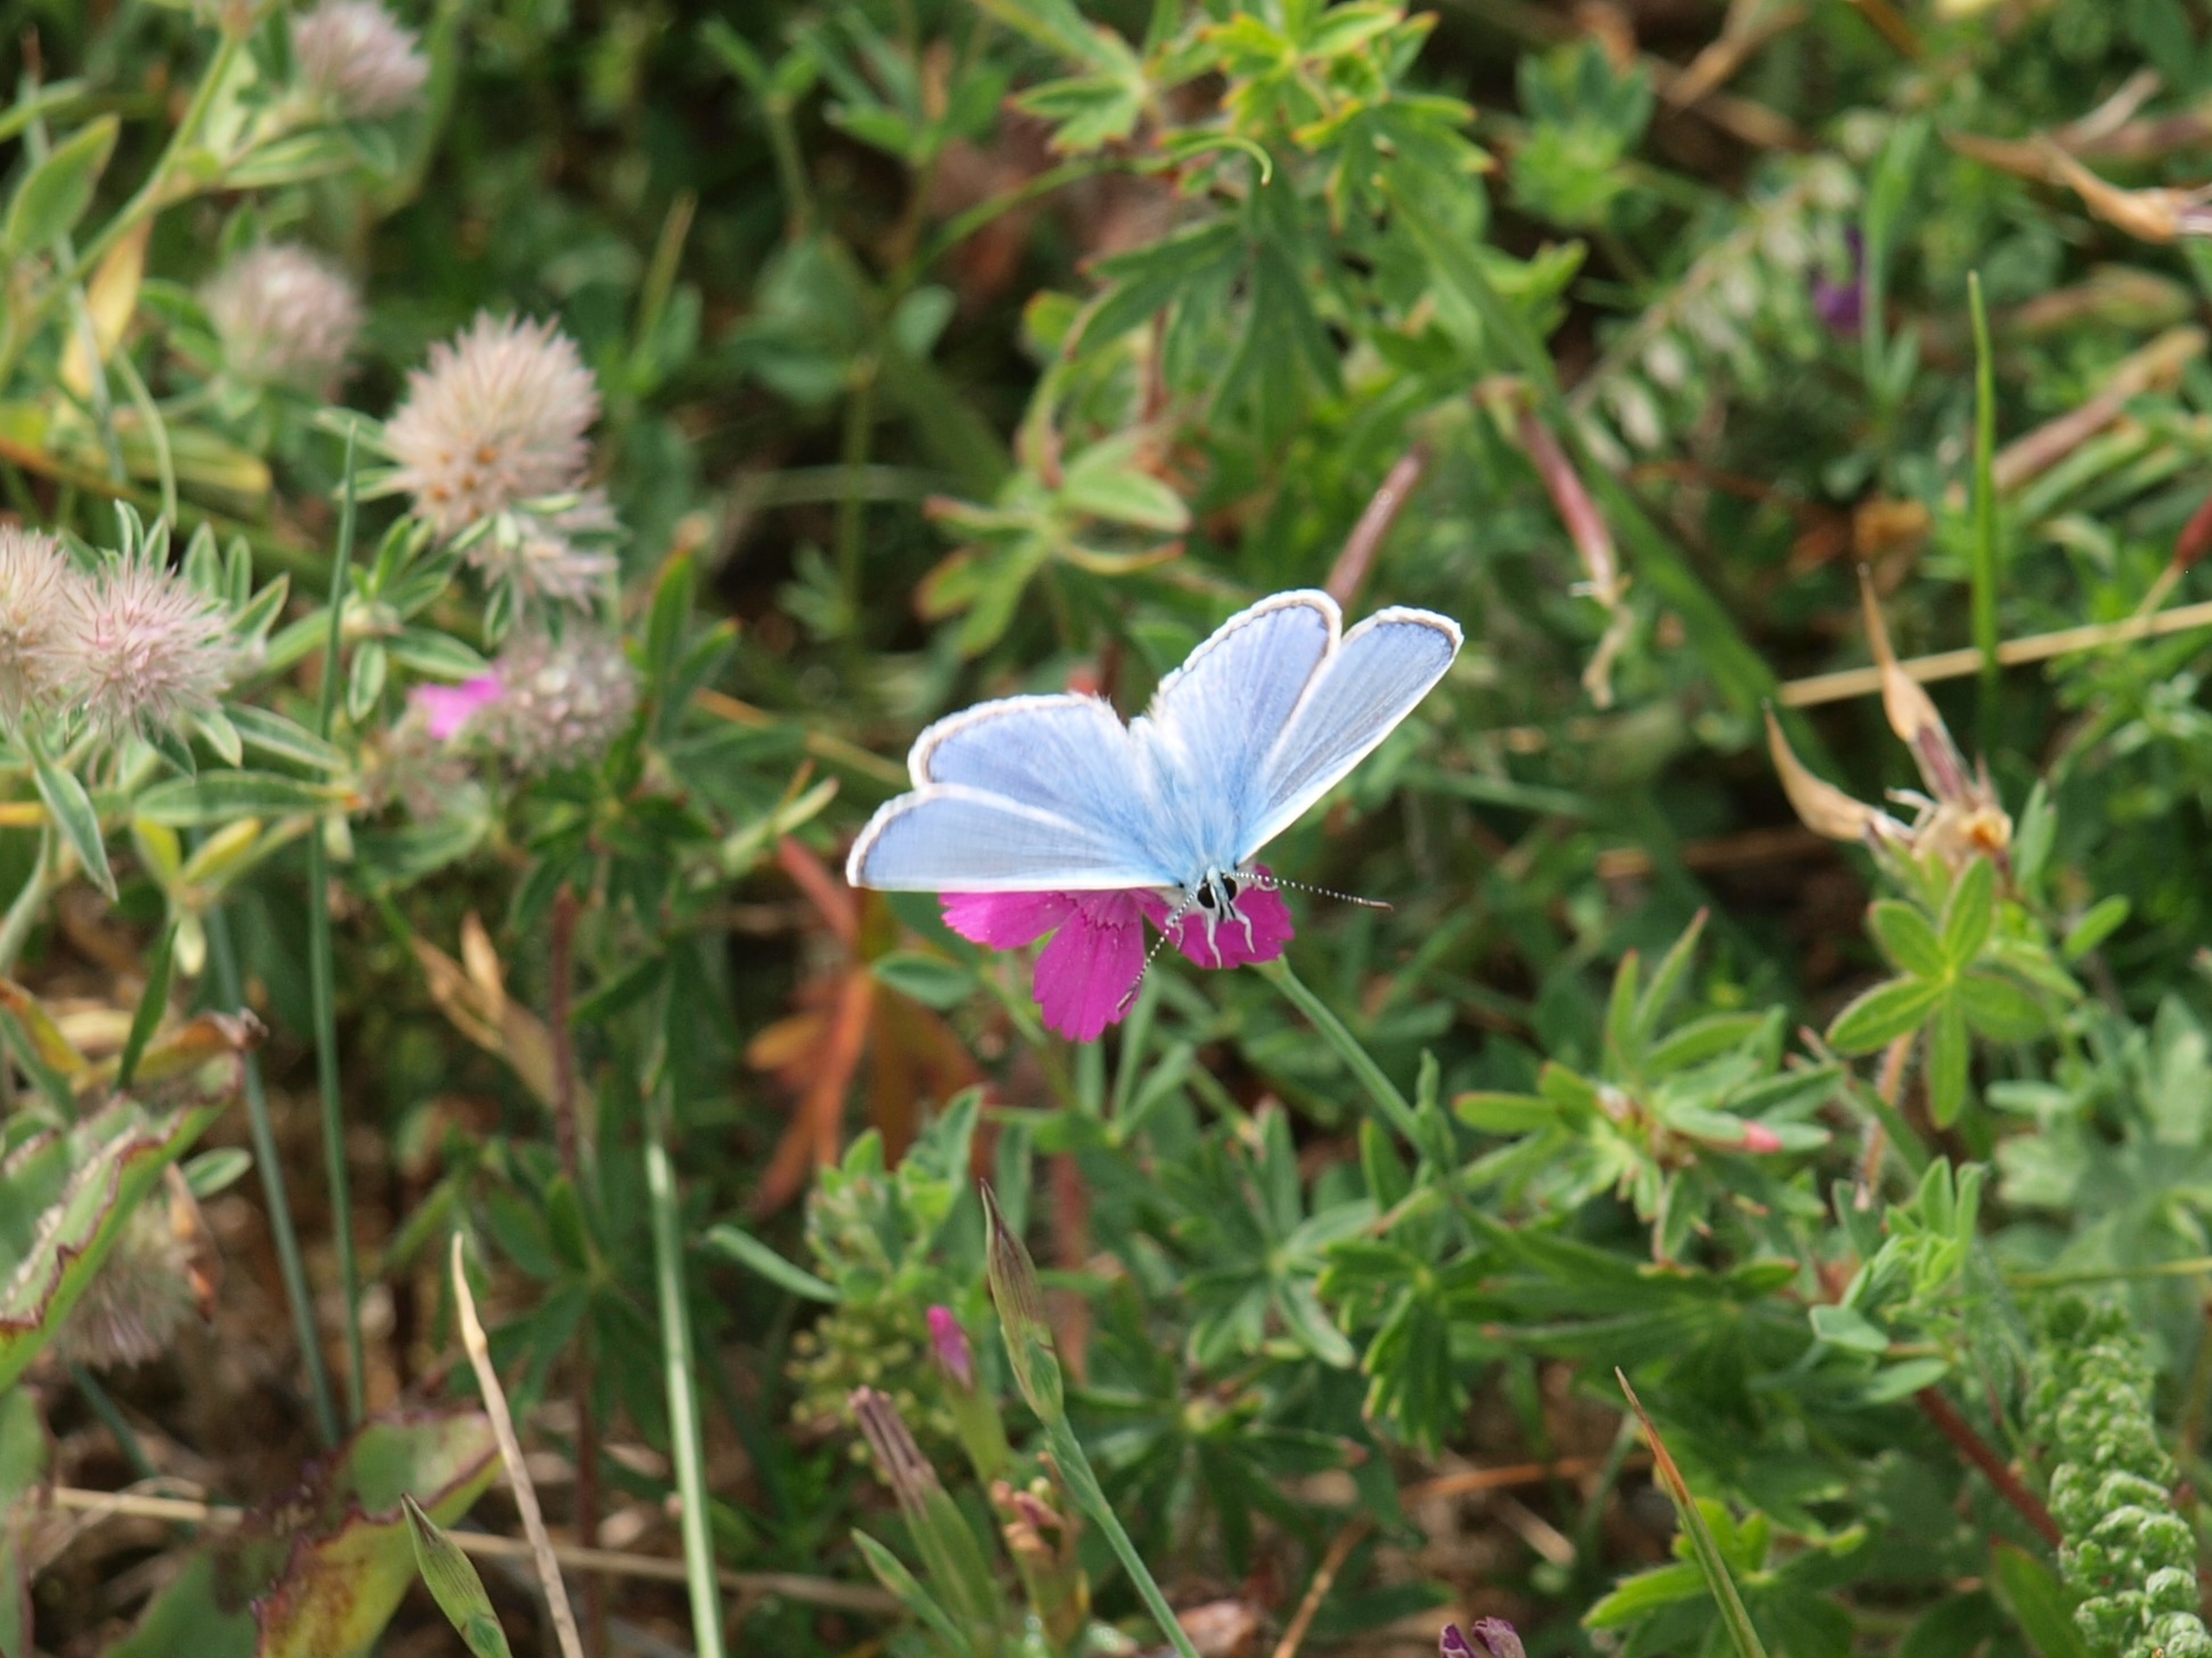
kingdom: Animalia
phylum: Arthropoda
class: Insecta
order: Lepidoptera
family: Lycaenidae
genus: Polyommatus
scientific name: Polyommatus icarus
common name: Almindelig blåfugl
